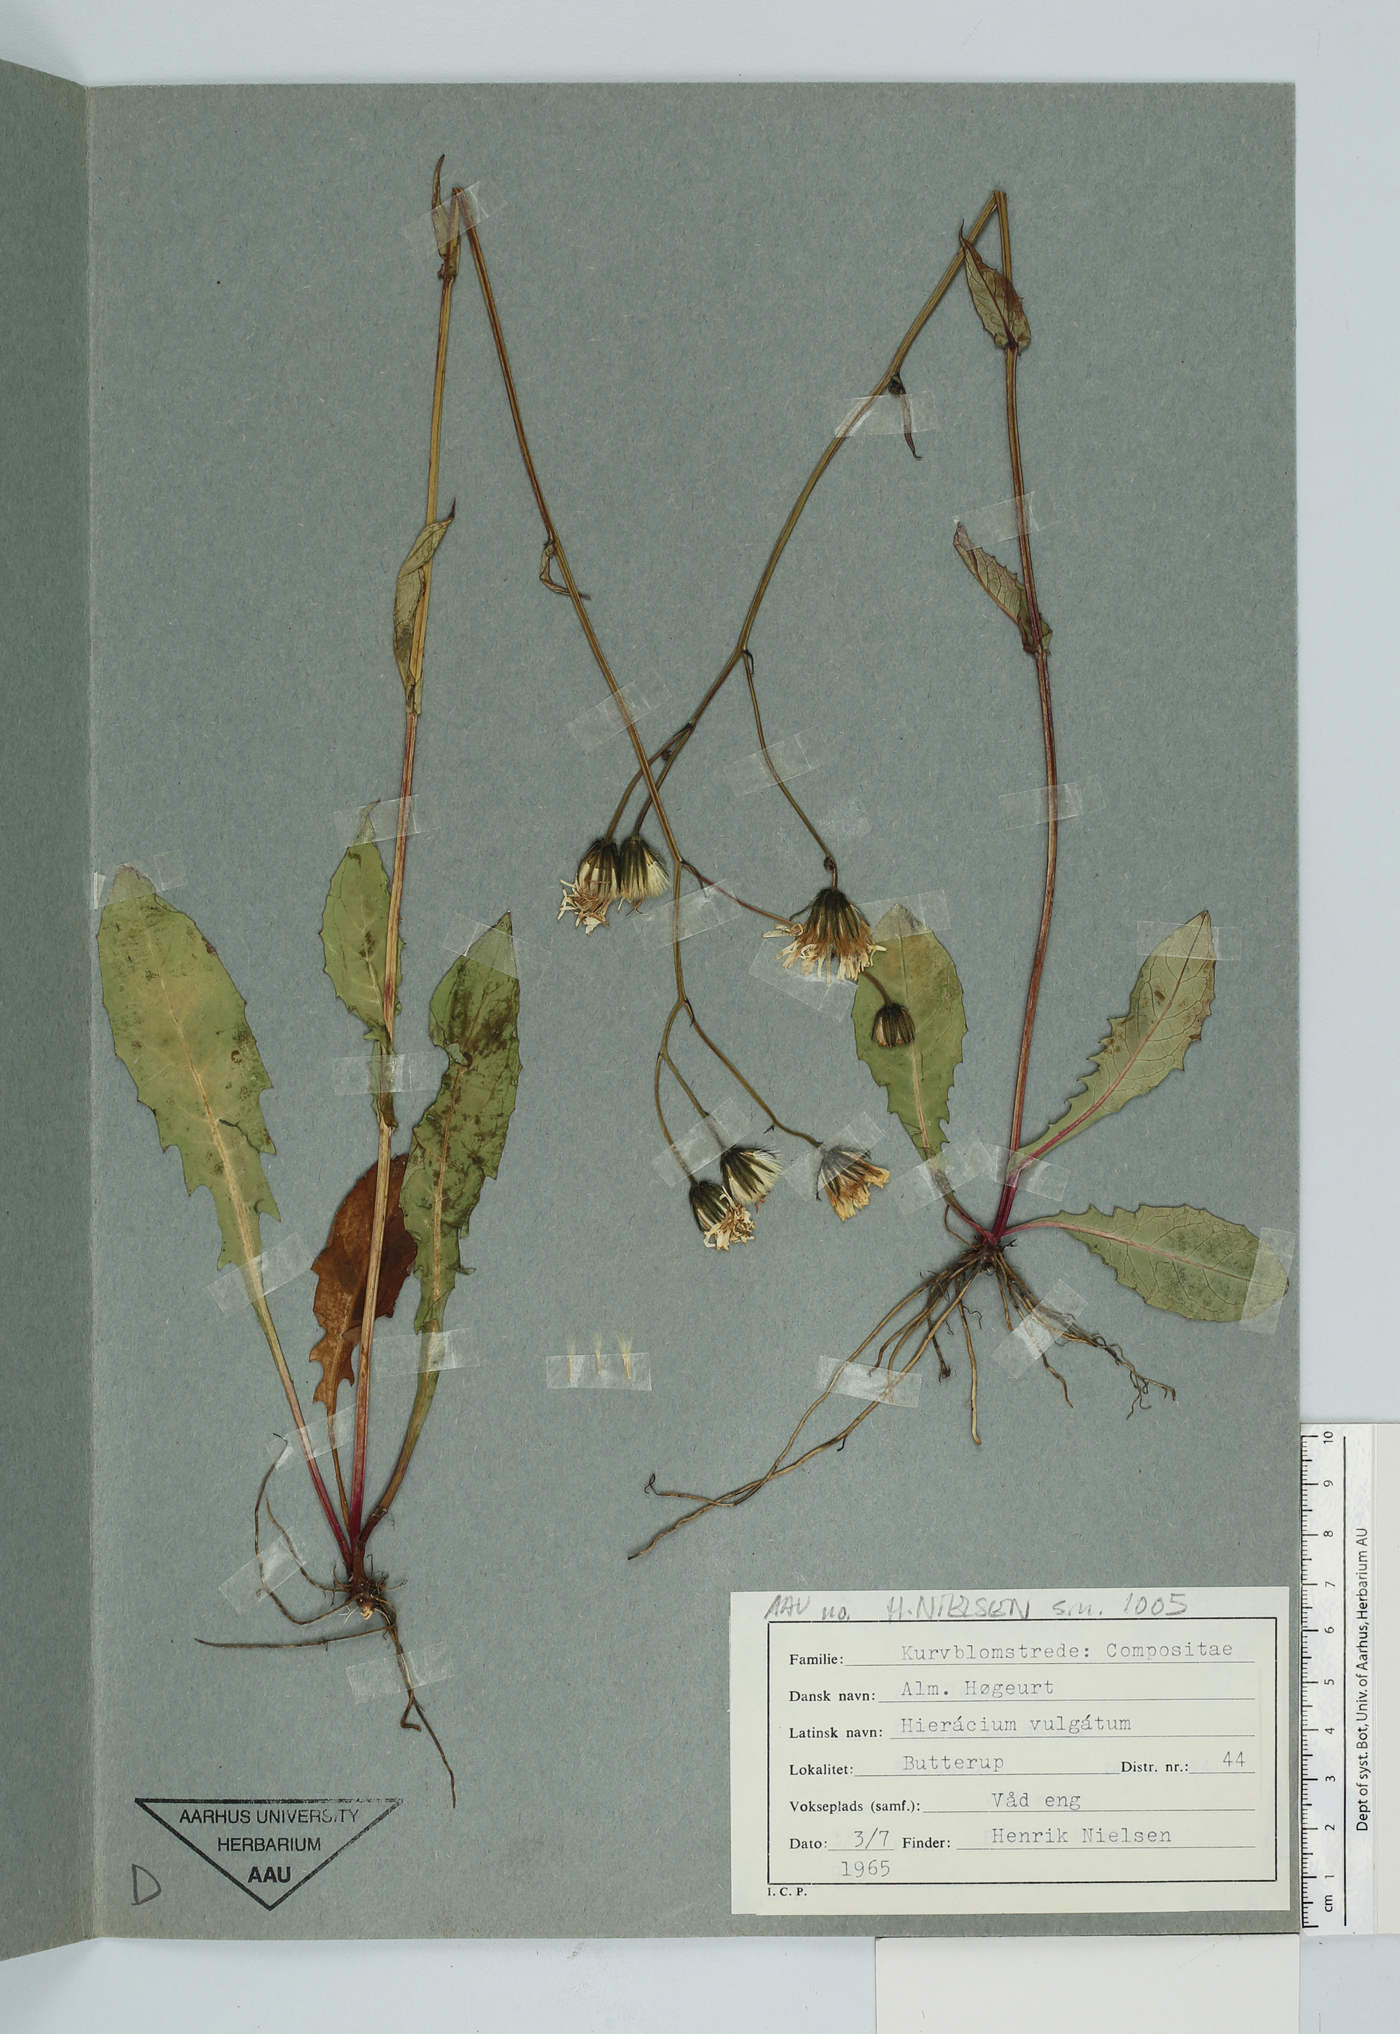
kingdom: Plantae
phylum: Tracheophyta
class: Magnoliopsida
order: Asterales
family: Asteraceae
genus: Hieracium
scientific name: Hieracium vulgatum
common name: Common hawkweed
